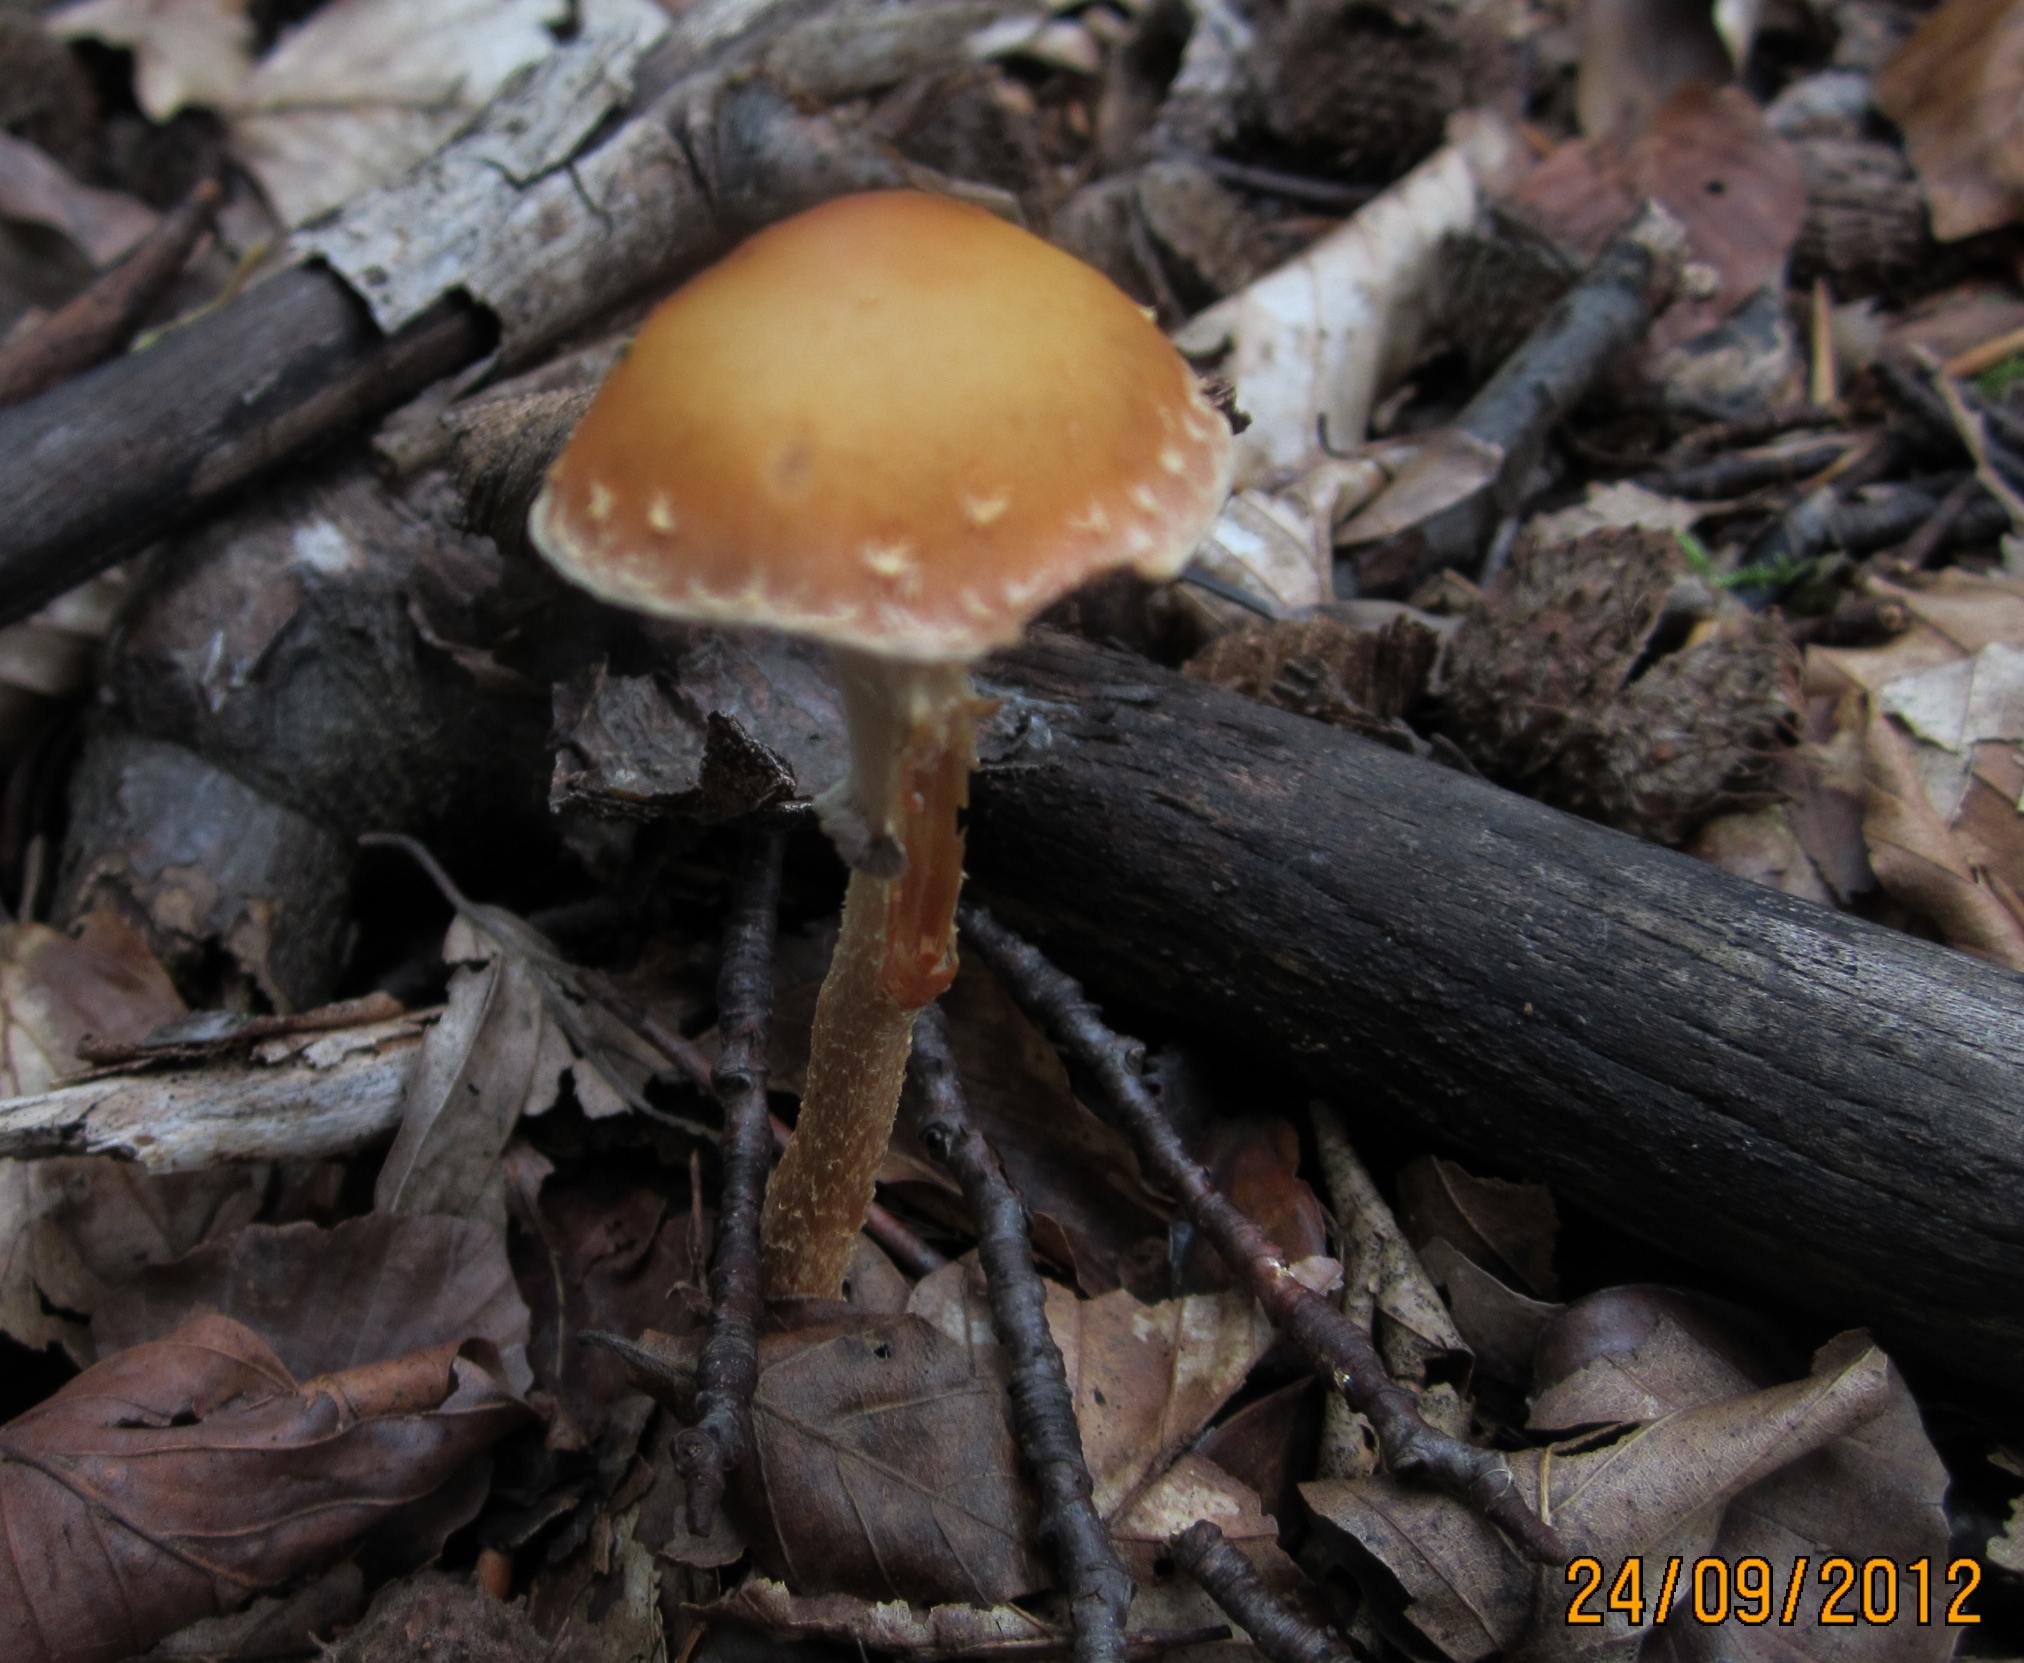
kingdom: Fungi
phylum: Basidiomycota
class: Agaricomycetes
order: Agaricales
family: Strophariaceae
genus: Leratiomyces
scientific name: Leratiomyces squamosus
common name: skællet bredblad
